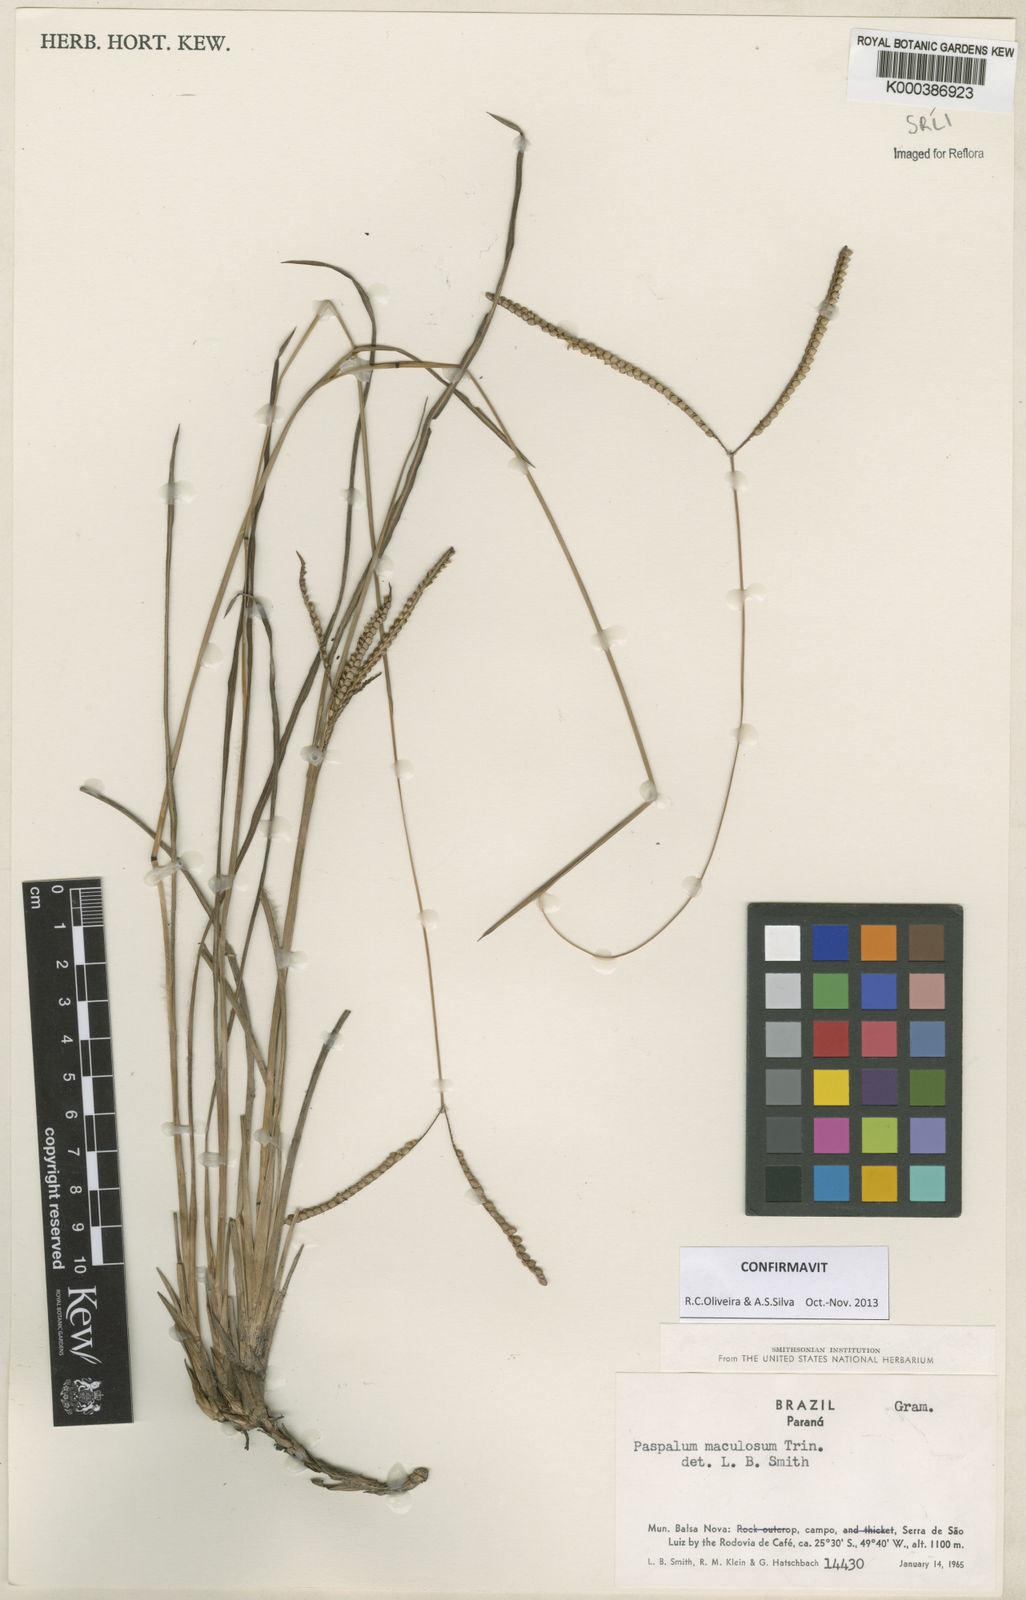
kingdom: Plantae
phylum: Tracheophyta
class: Liliopsida
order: Poales
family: Poaceae
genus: Paspalum
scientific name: Paspalum maculosum
